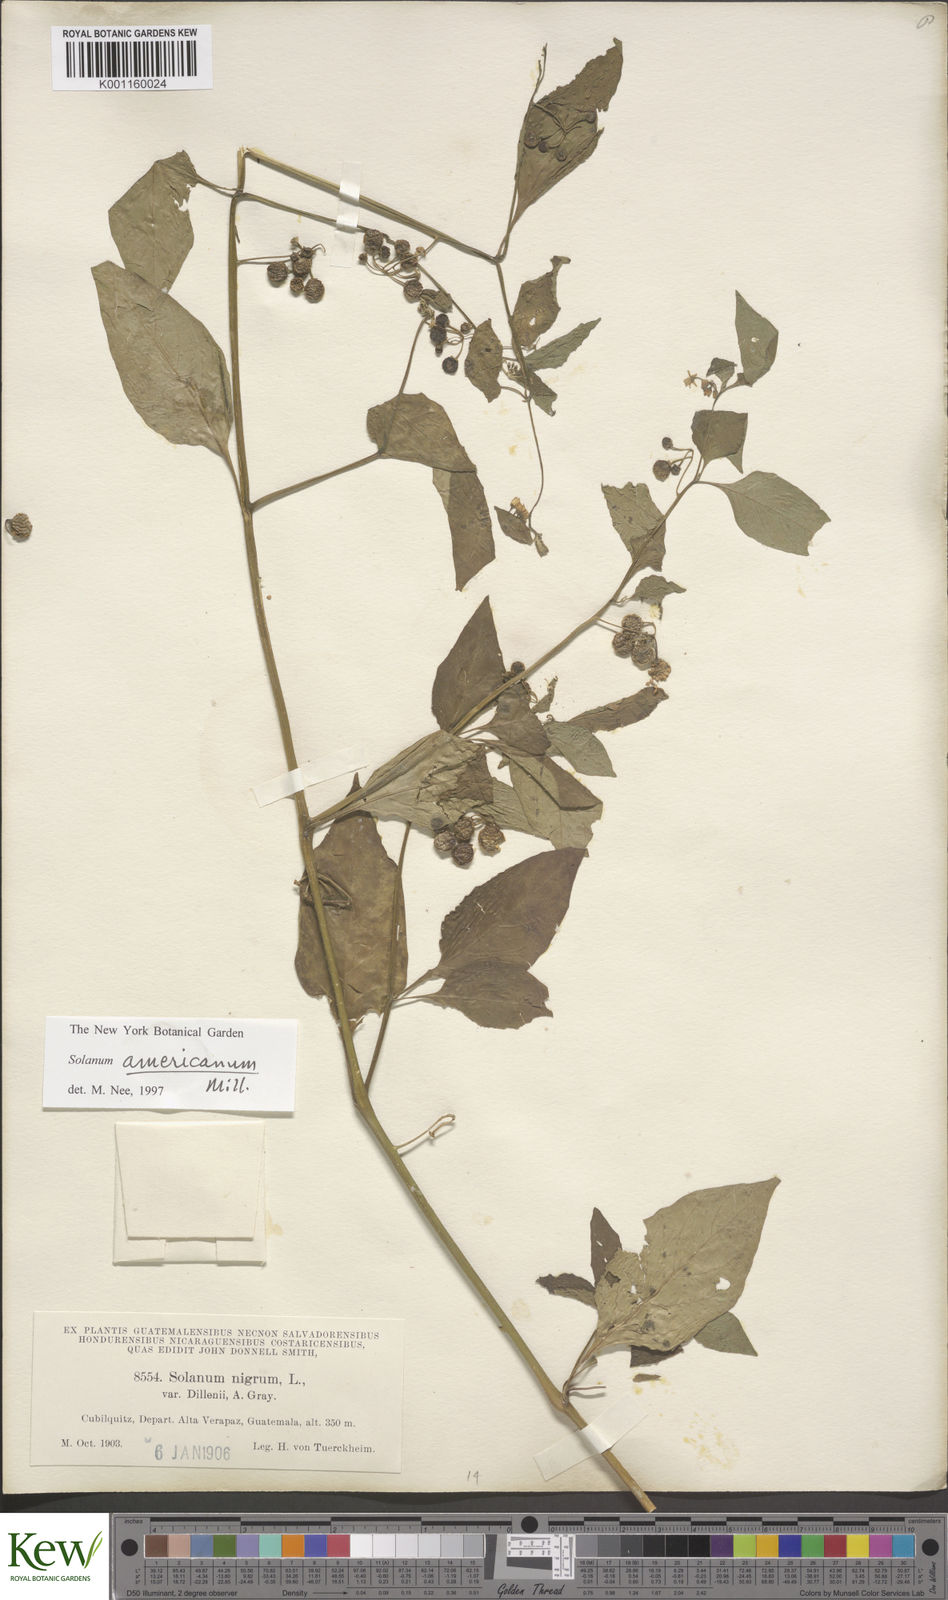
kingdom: Plantae
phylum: Tracheophyta
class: Magnoliopsida
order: Solanales
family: Solanaceae
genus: Solanum
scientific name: Solanum americanum
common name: American black nightshade
